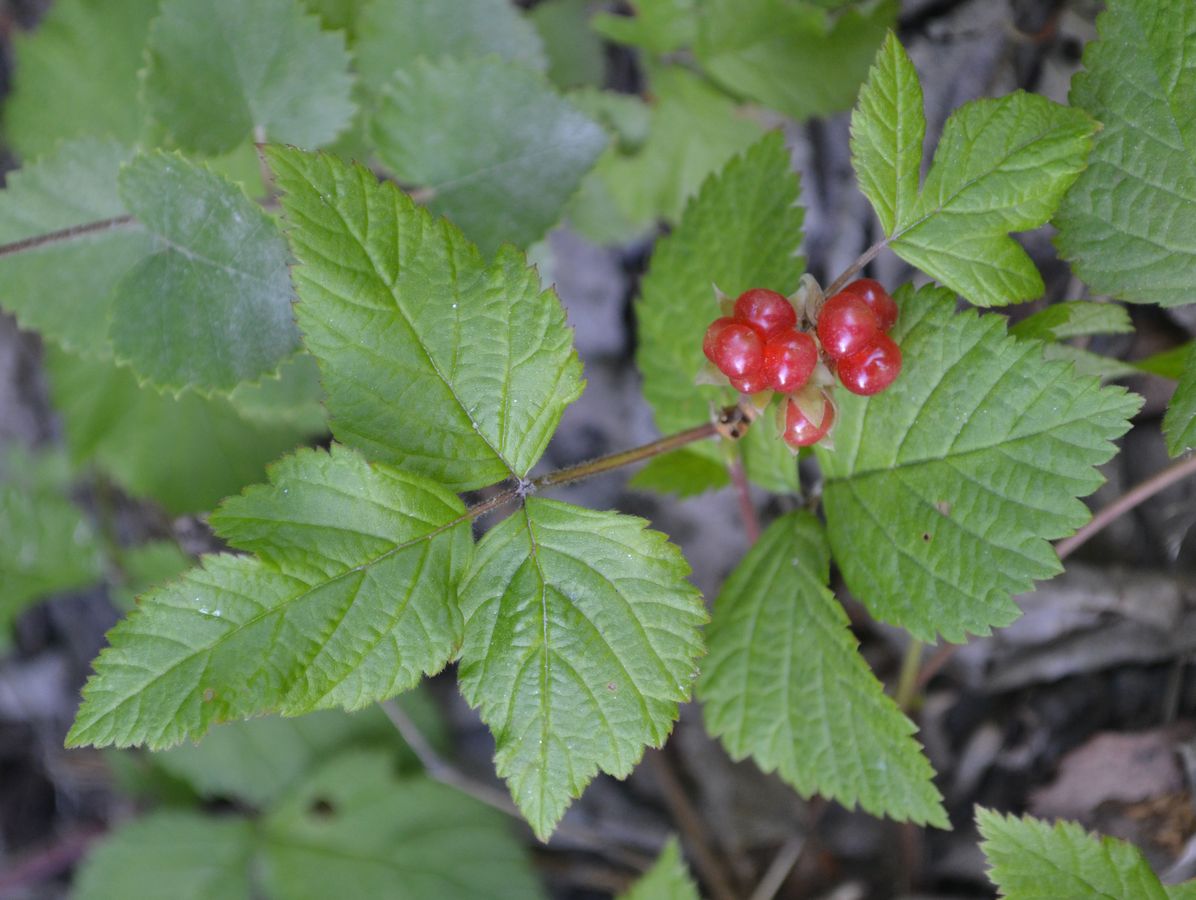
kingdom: Plantae
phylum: Tracheophyta
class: Magnoliopsida
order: Rosales
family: Rosaceae
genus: Rubus
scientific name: Rubus saxatilis
